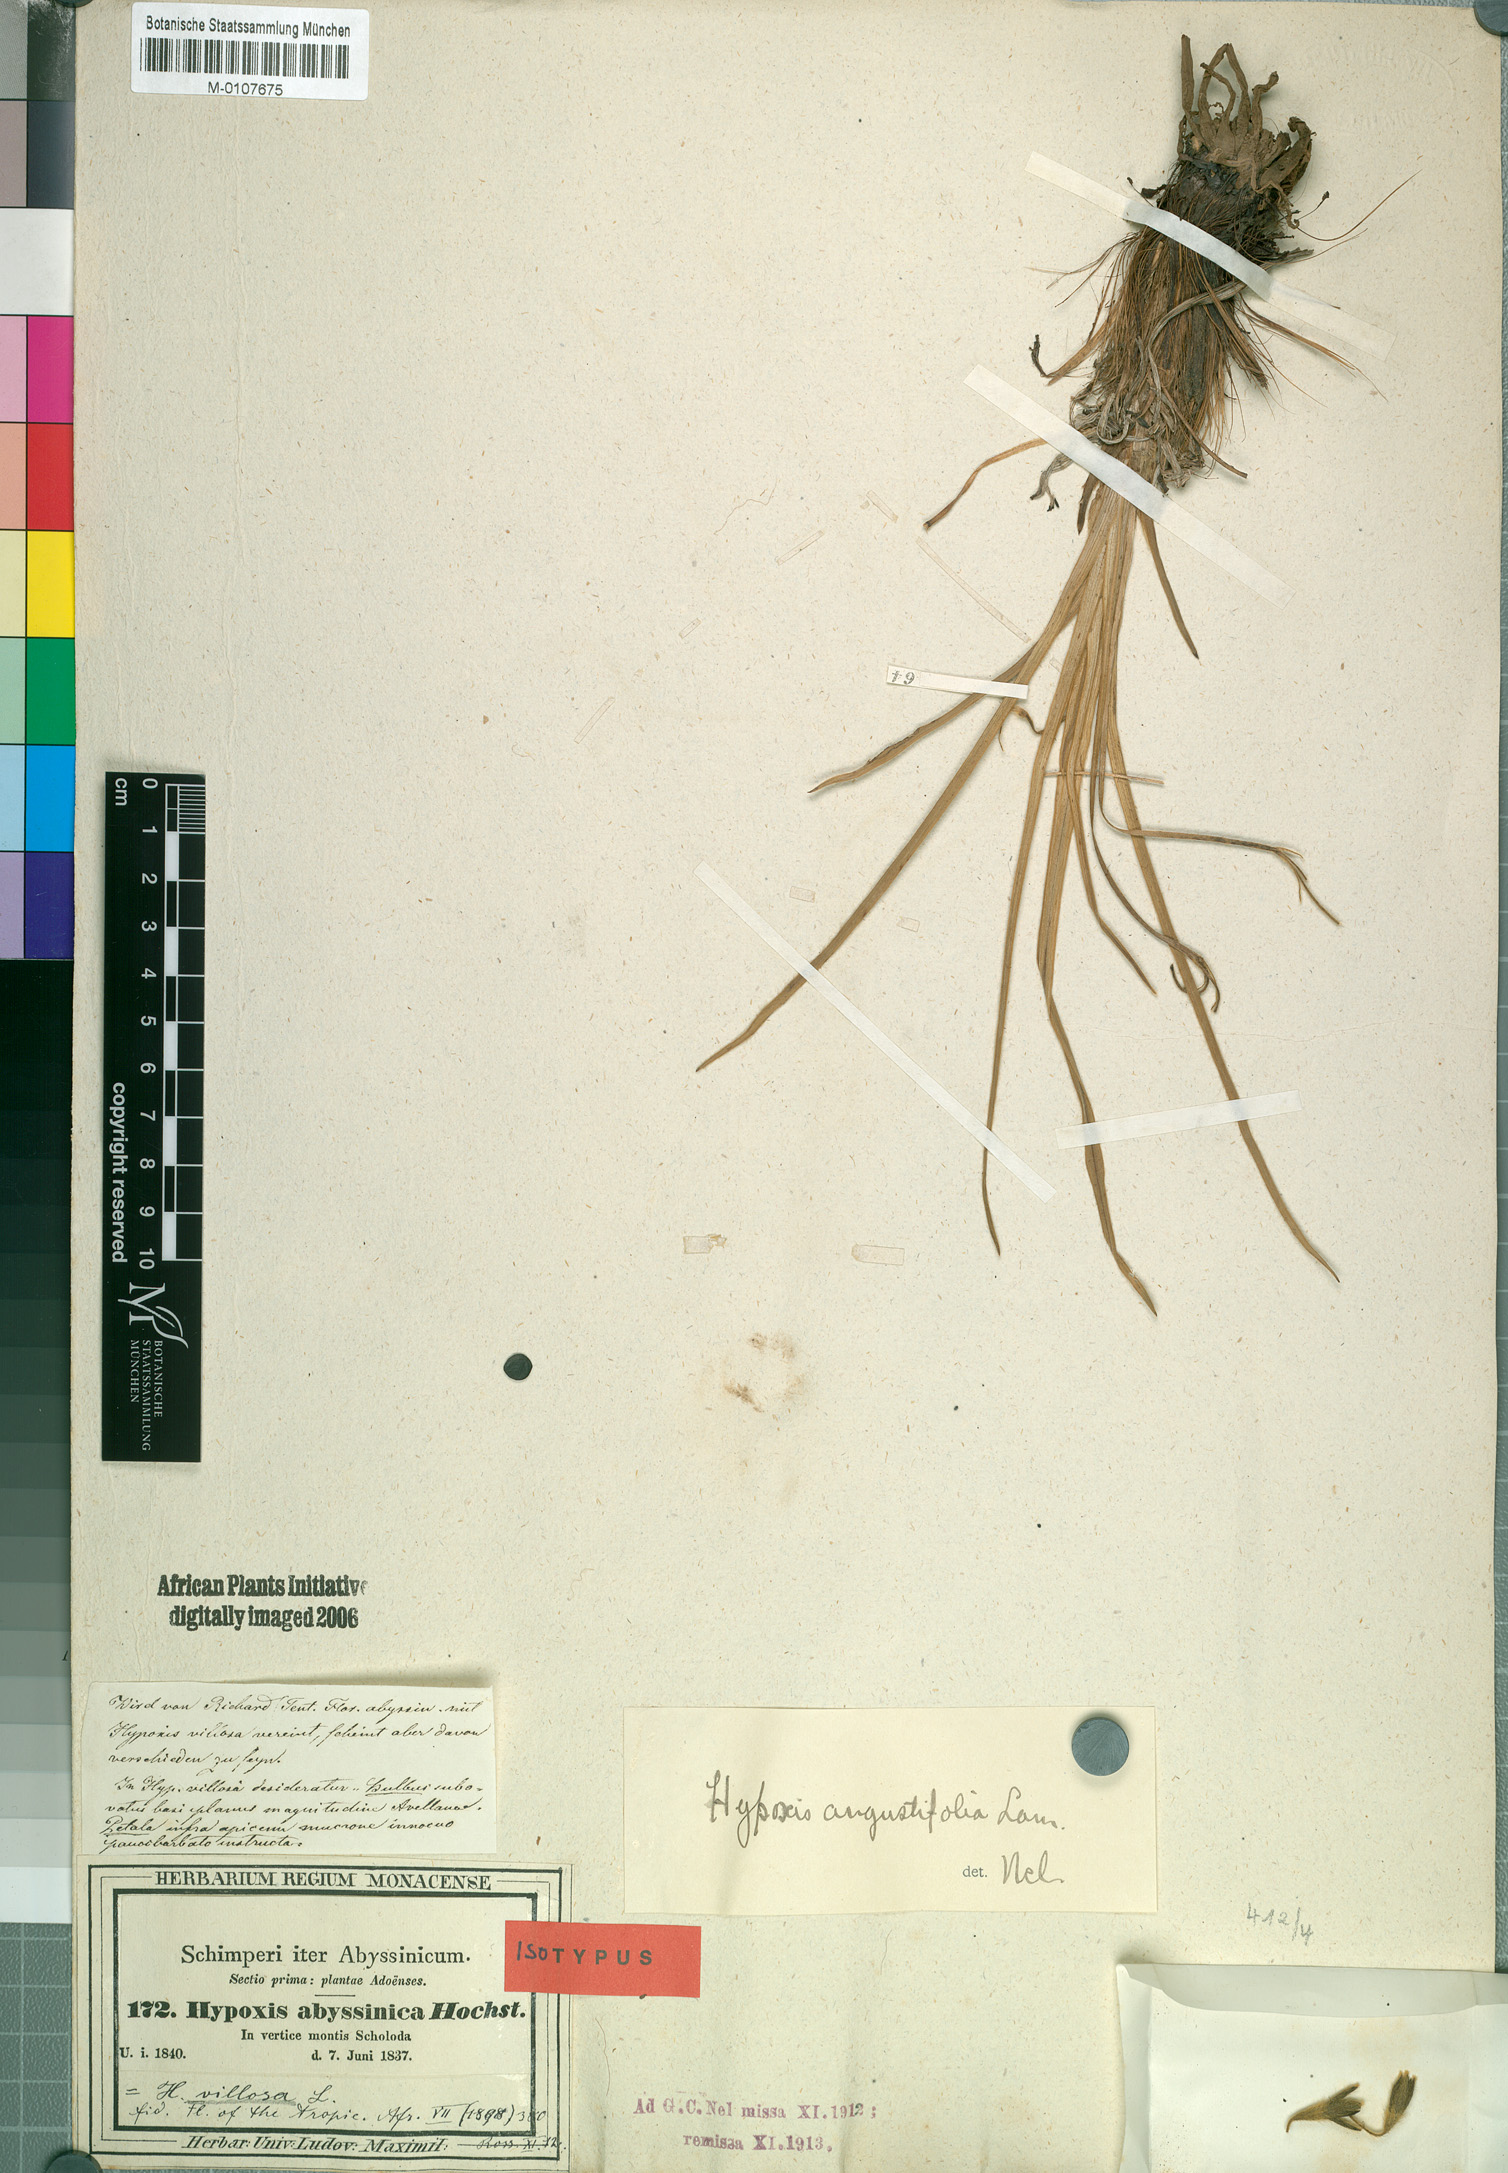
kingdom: Plantae
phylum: Tracheophyta
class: Liliopsida
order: Asparagales
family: Hypoxidaceae
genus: Hypoxis
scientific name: Hypoxis angustifolia
